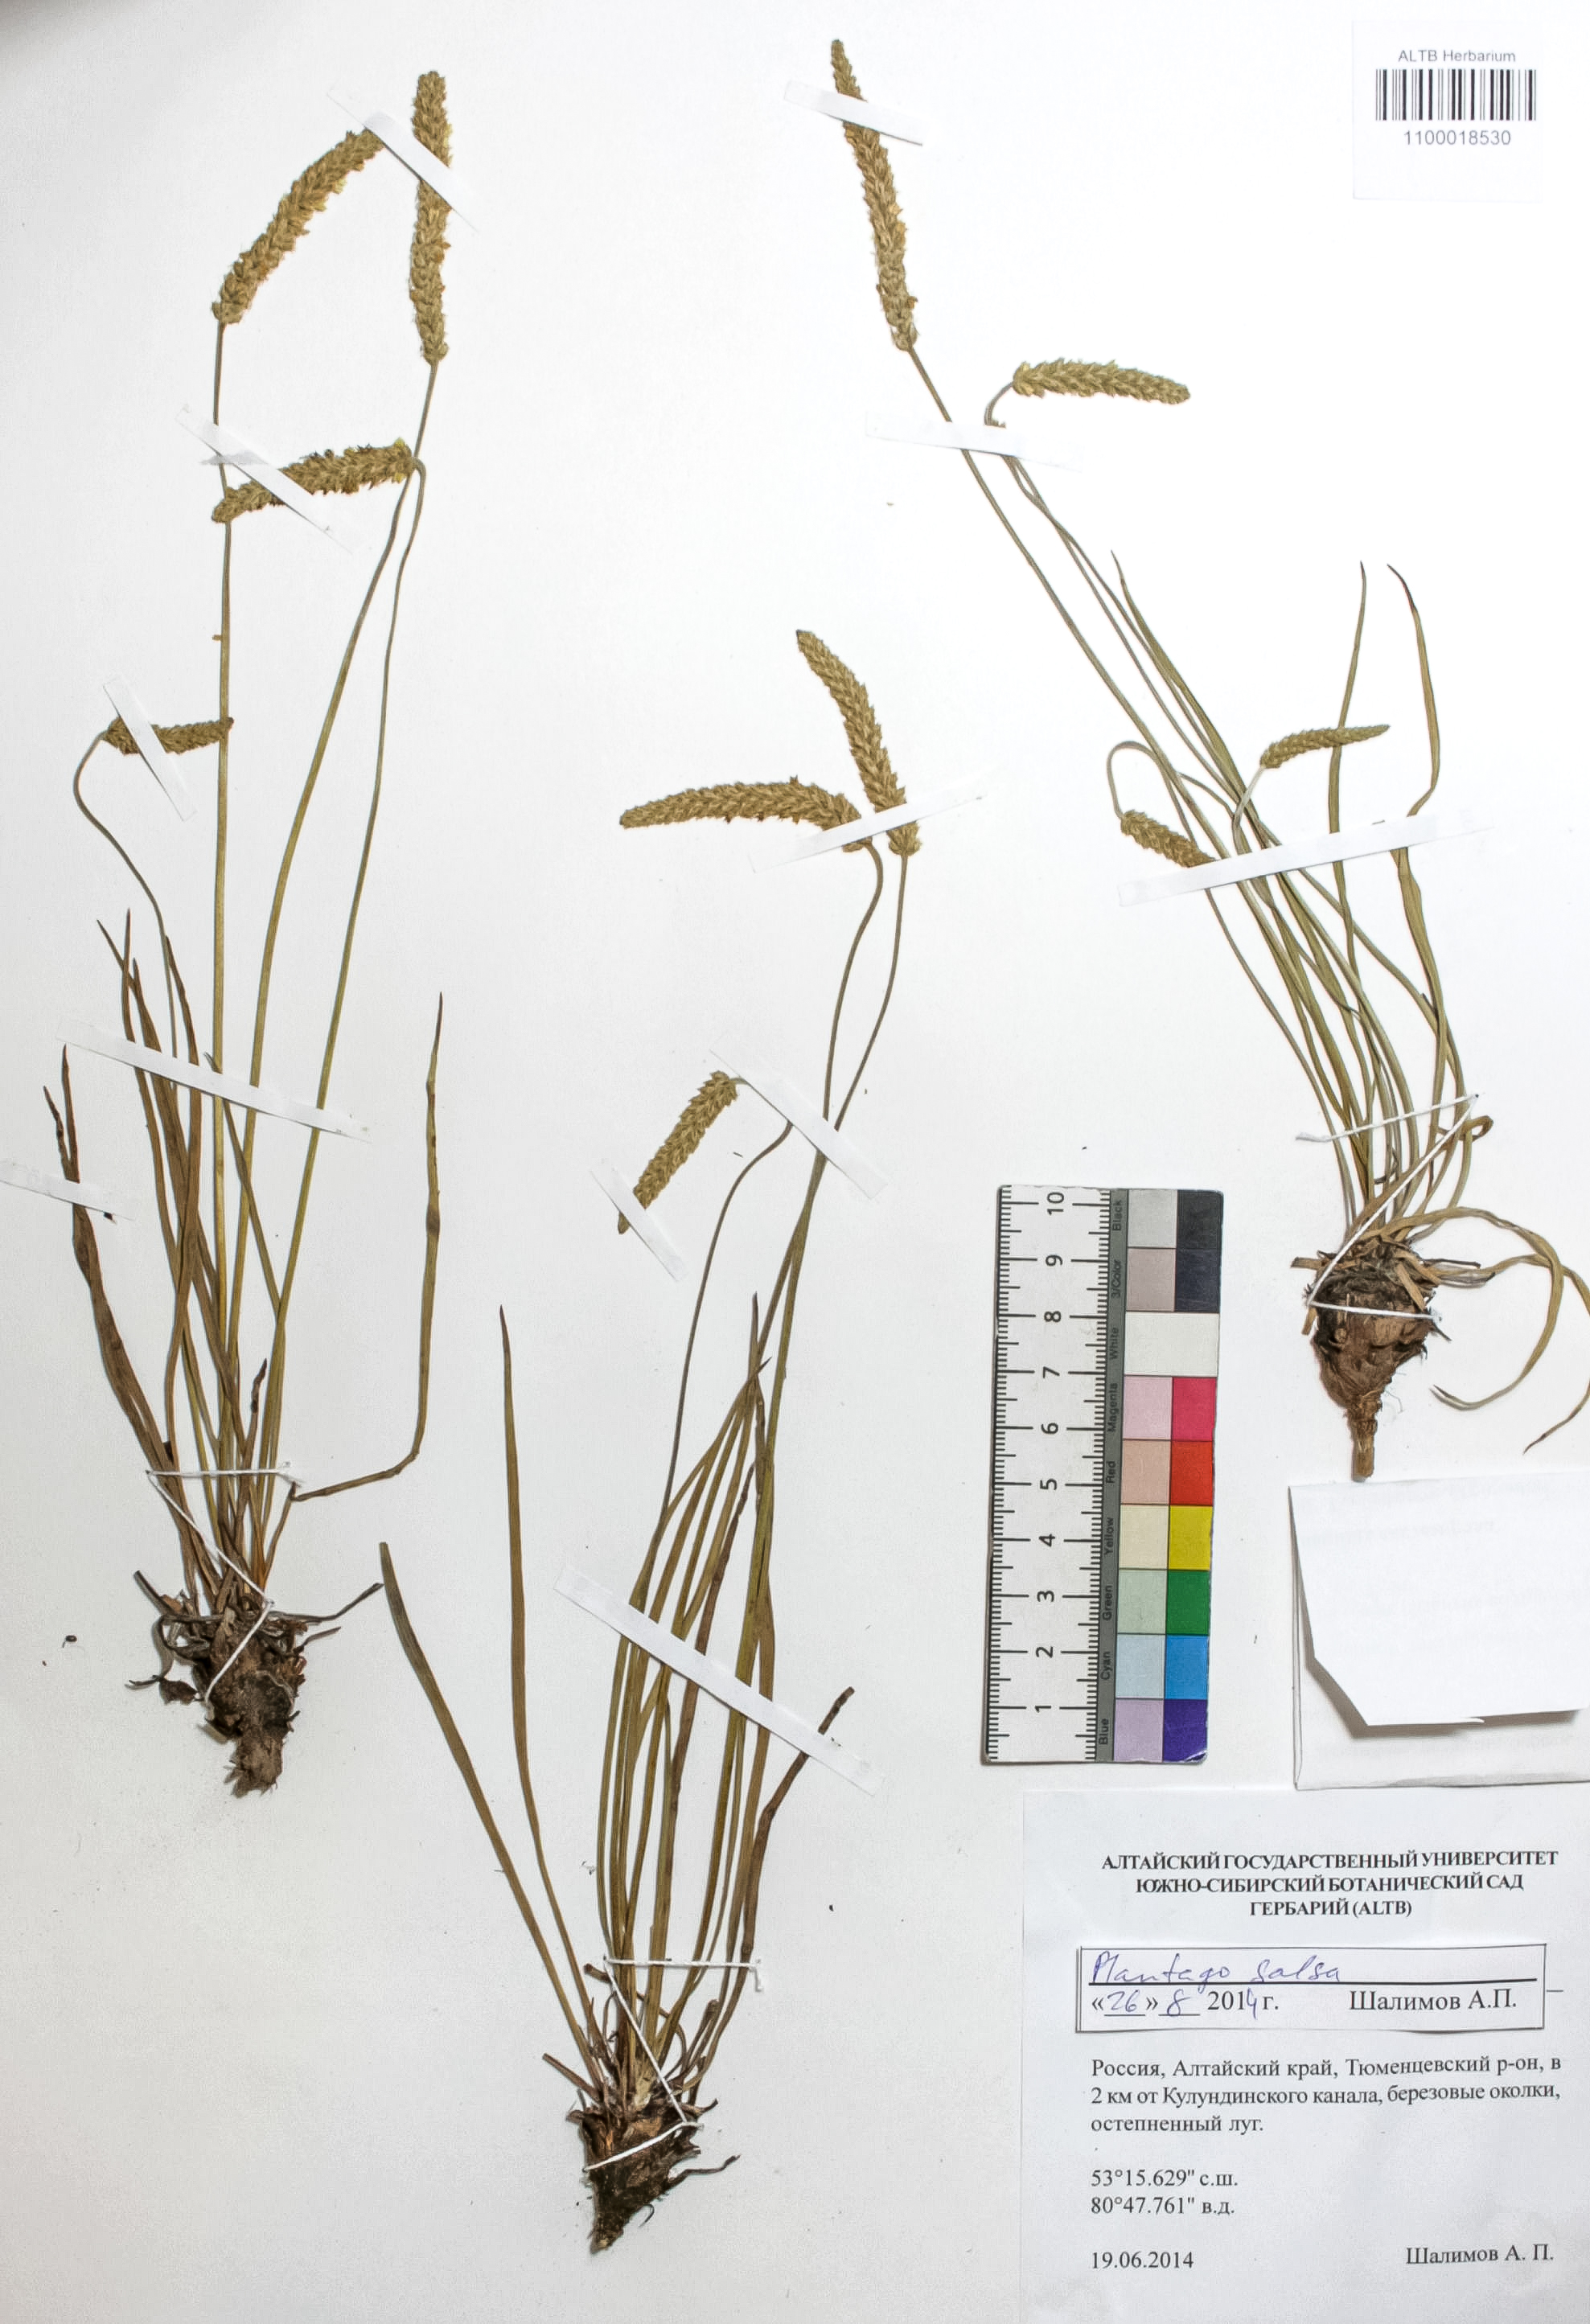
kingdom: Plantae
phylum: Tracheophyta
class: Magnoliopsida
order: Lamiales
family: Plantaginaceae
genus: Plantago
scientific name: Plantago salsa
